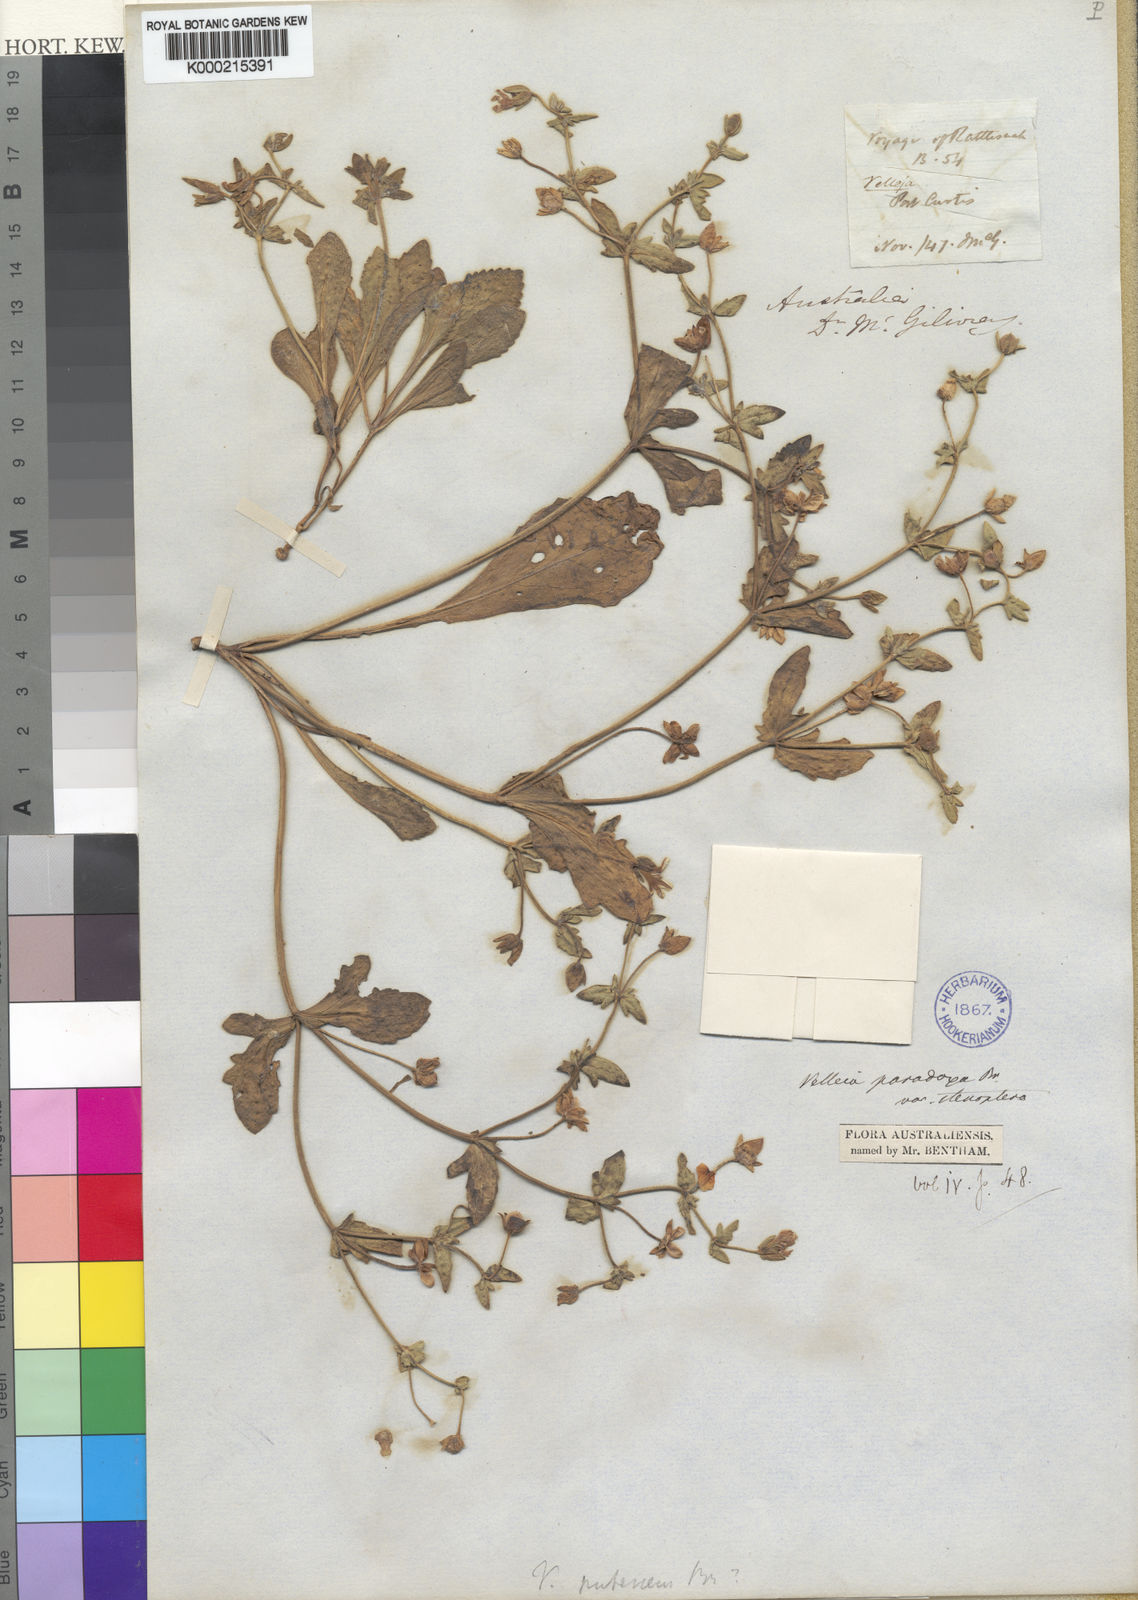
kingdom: Plantae
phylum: Tracheophyta
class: Magnoliopsida
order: Asterales
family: Goodeniaceae
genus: Goodenia
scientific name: Goodenia paradoxa
